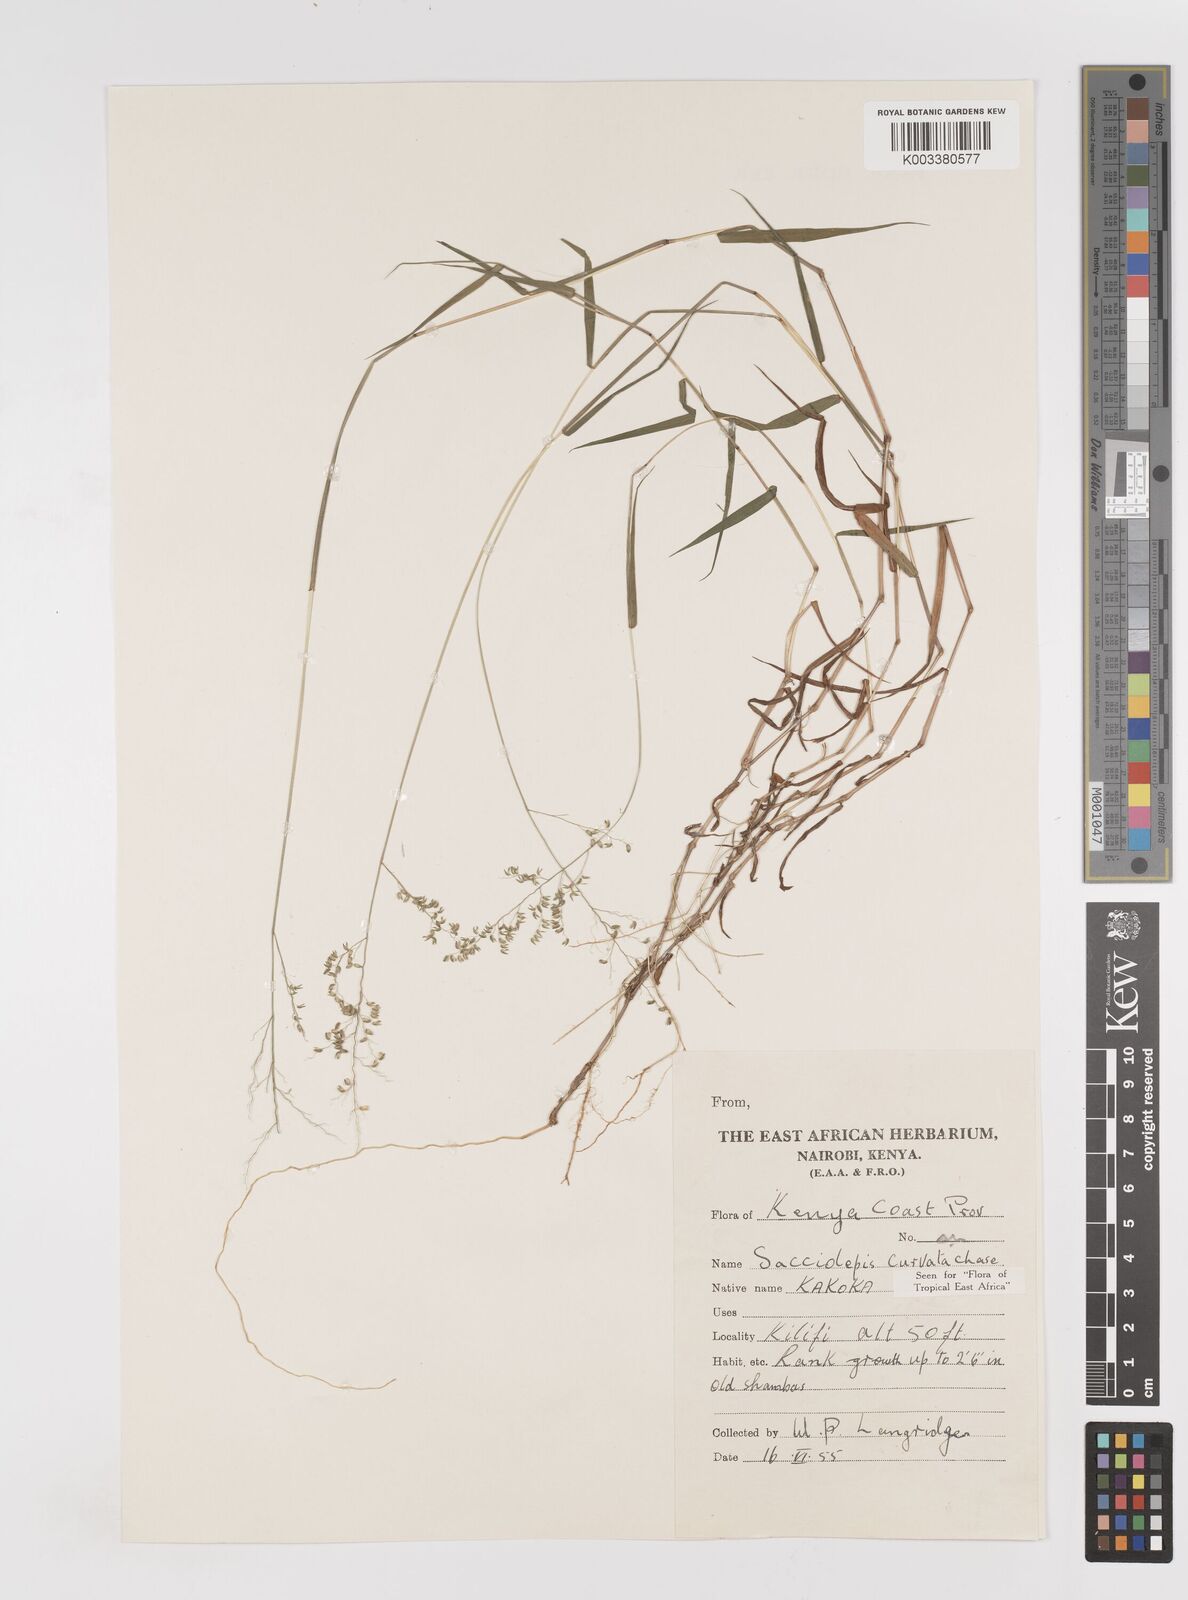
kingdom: Plantae
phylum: Tracheophyta
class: Liliopsida
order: Poales
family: Poaceae
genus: Sacciolepis
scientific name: Sacciolepis curvata
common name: Forest hood grass
